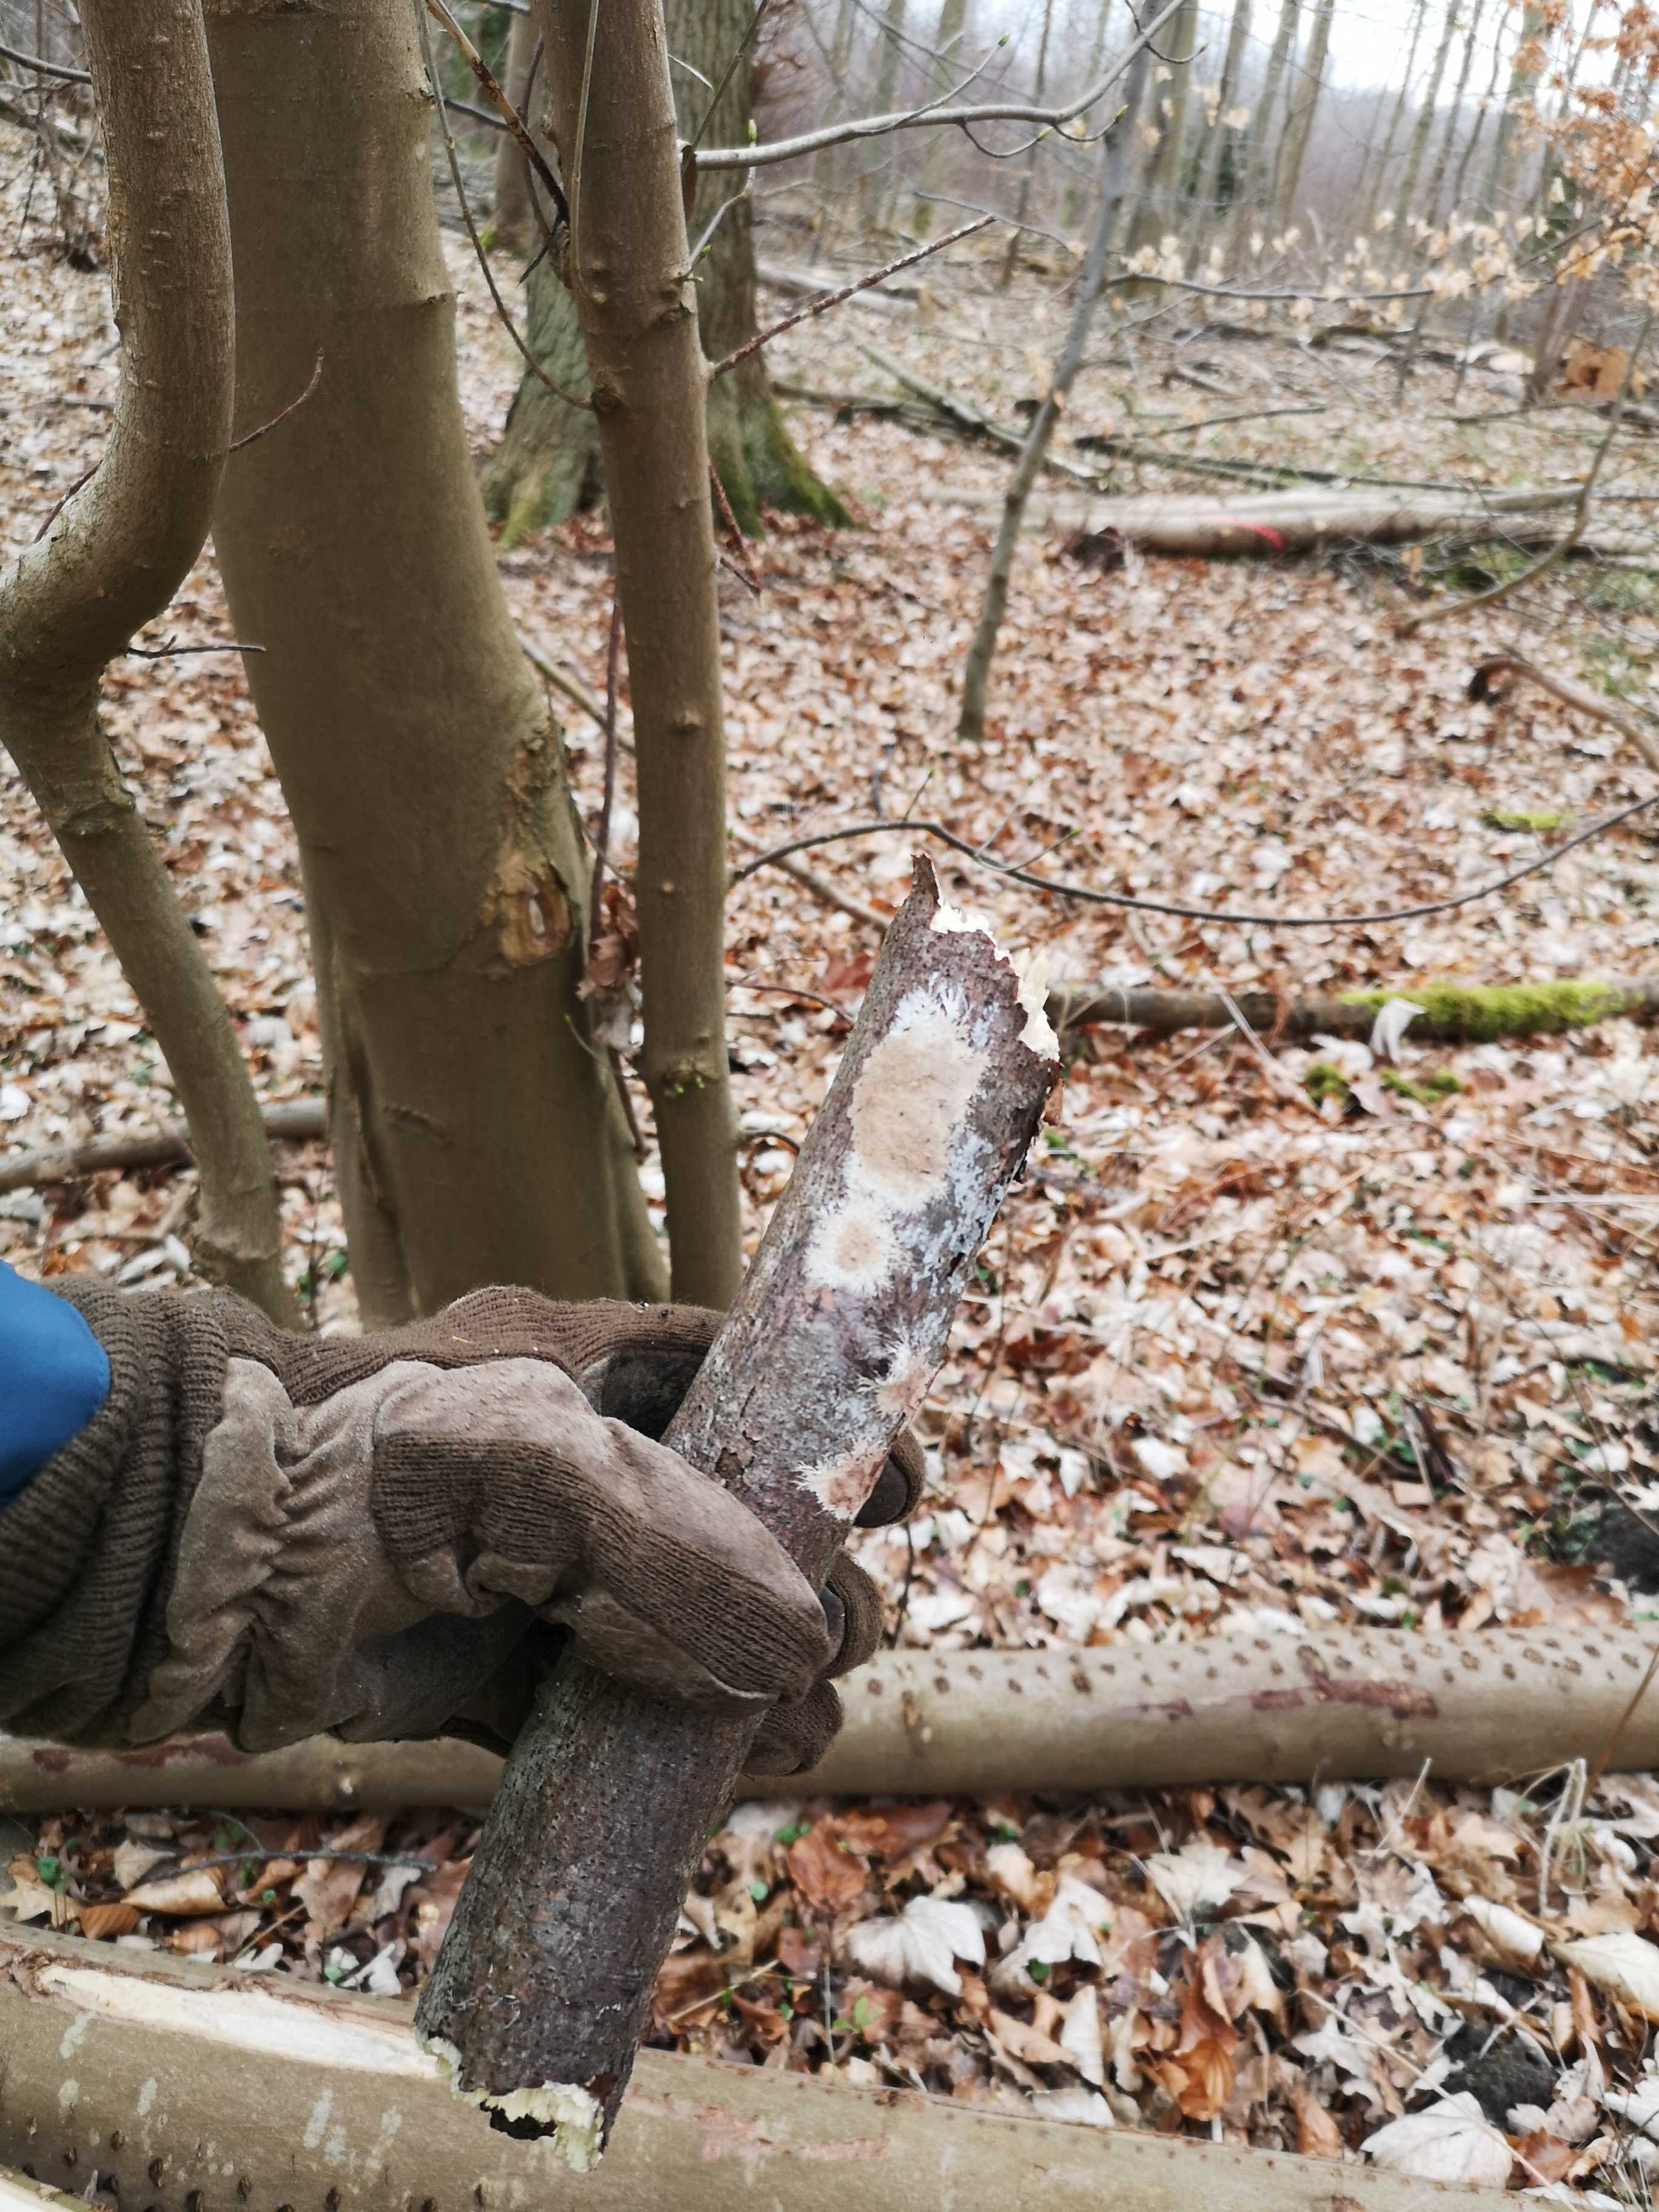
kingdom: Fungi
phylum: Basidiomycota
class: Agaricomycetes
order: Polyporales
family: Steccherinaceae
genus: Steccherinum
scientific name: Steccherinum fimbriatum
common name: trådet skønpig
